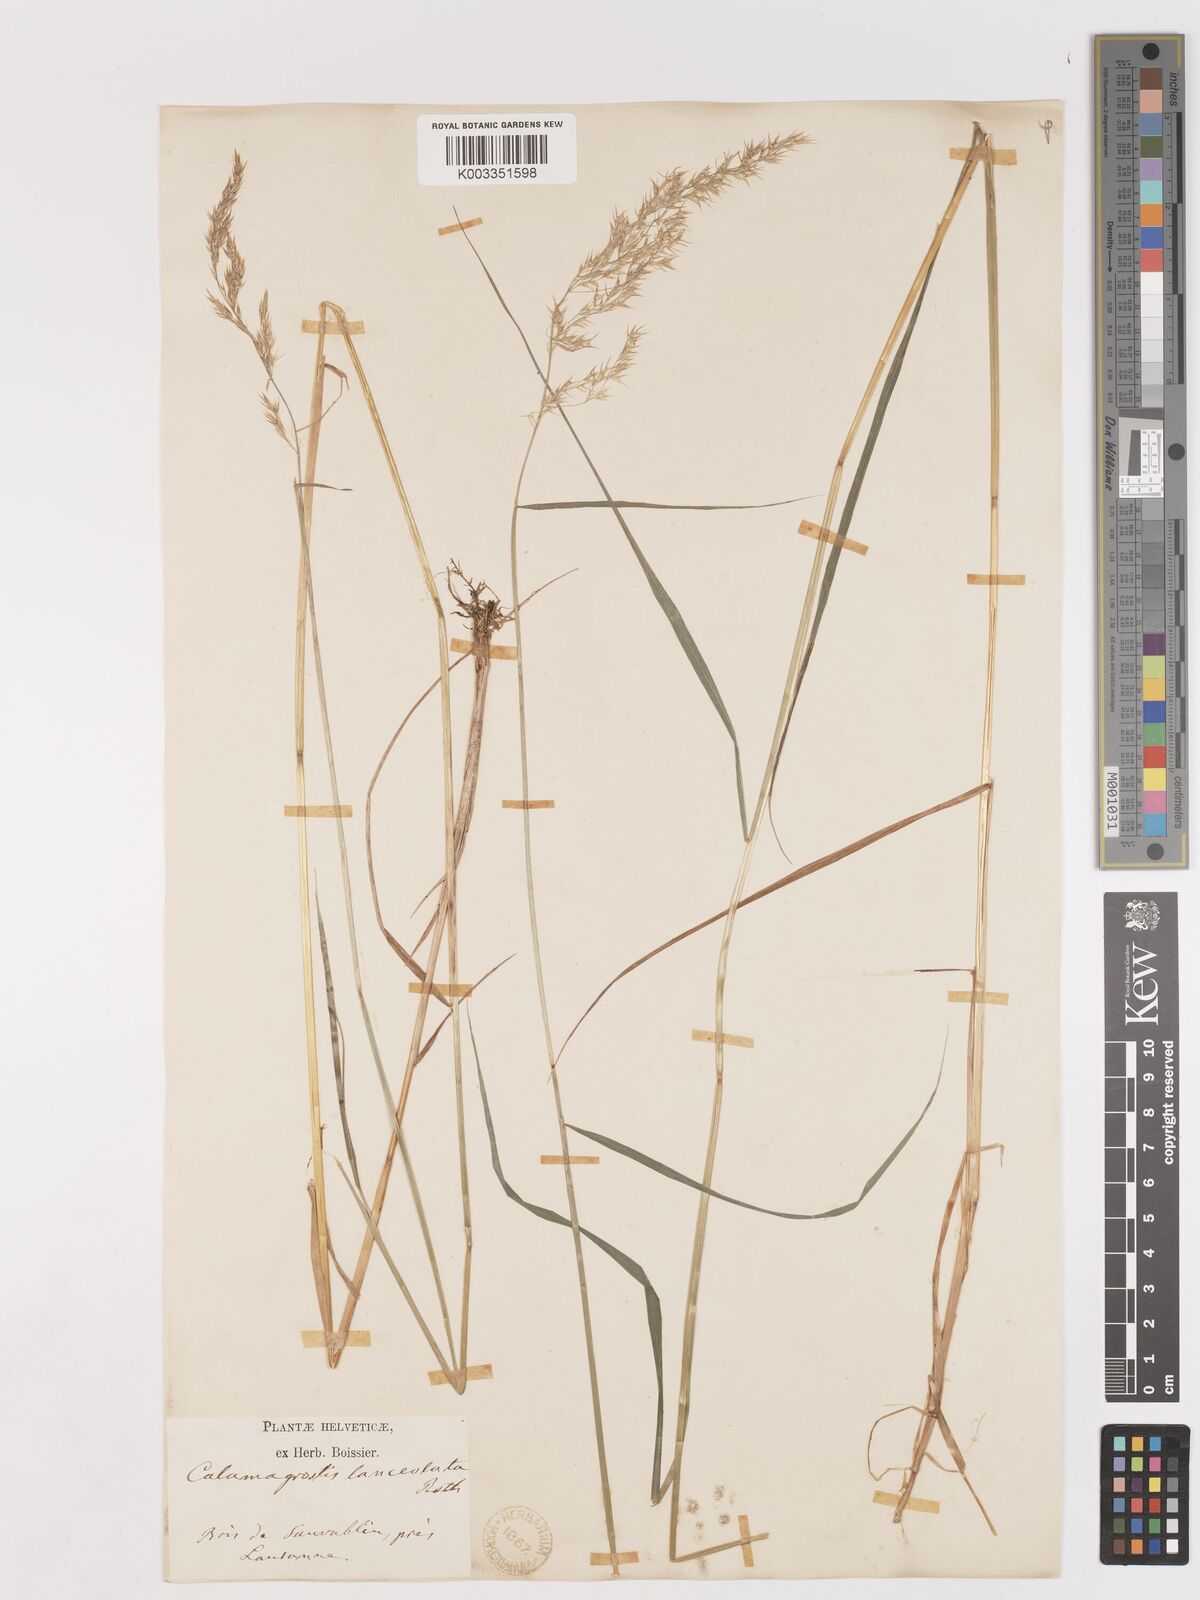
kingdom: Plantae
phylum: Tracheophyta
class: Liliopsida
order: Poales
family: Poaceae
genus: Calamagrostis
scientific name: Calamagrostis canescens
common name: Purple small-reed
